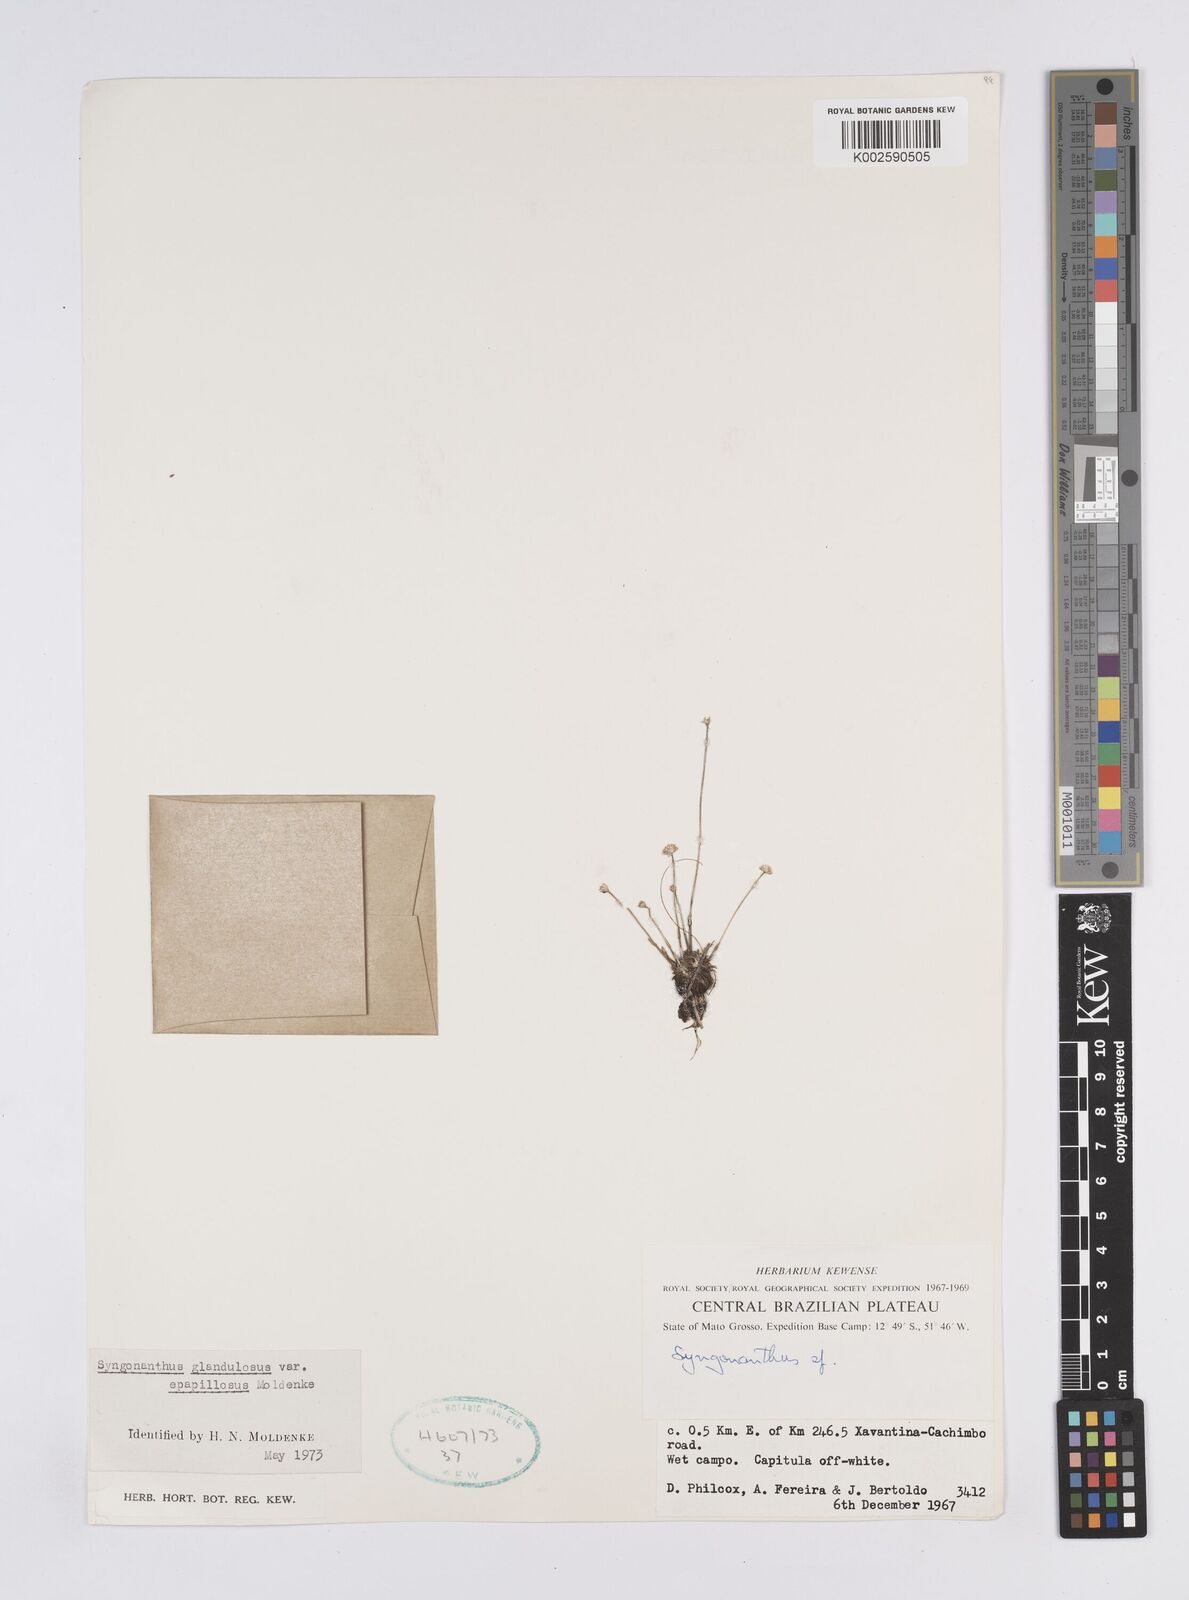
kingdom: Plantae
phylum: Tracheophyta
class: Liliopsida
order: Poales
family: Eriocaulaceae
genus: Syngonanthus
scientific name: Syngonanthus caulescens
